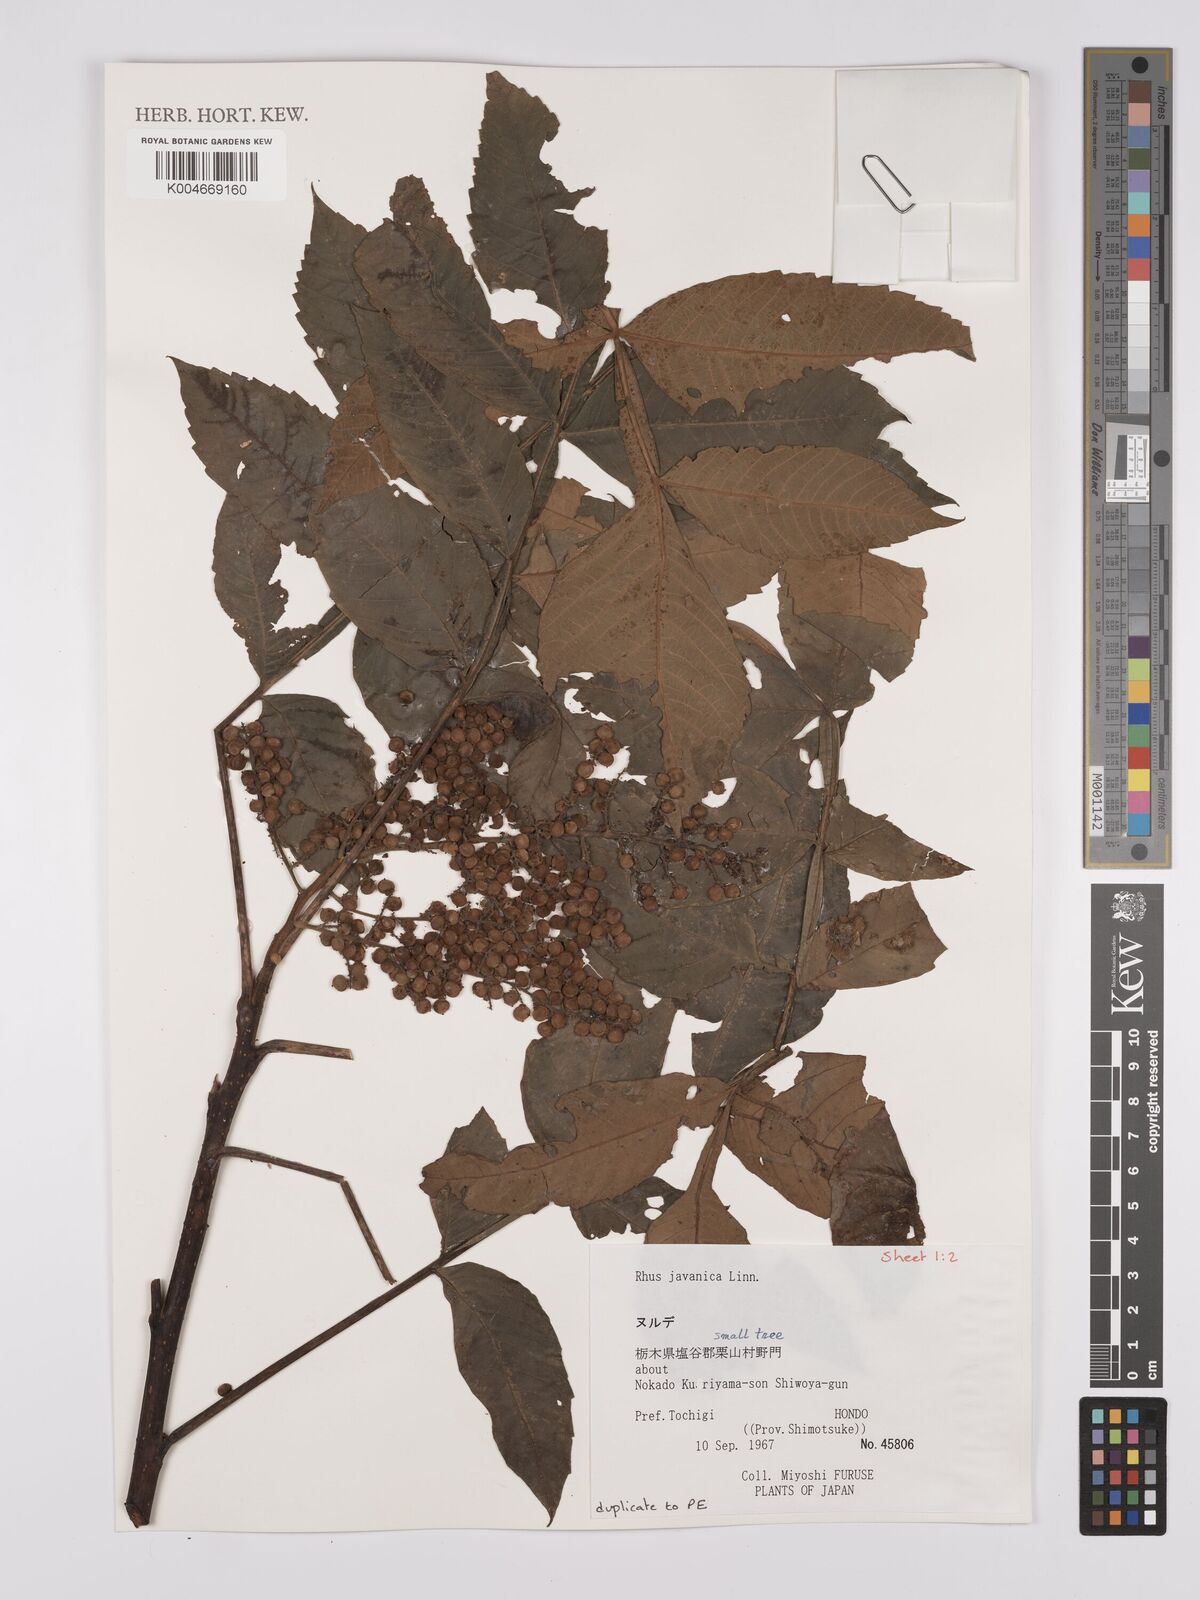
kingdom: Plantae
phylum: Tracheophyta
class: Magnoliopsida
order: Sapindales
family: Anacardiaceae
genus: Rhus
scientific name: Rhus chinensis
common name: Chinese gall
